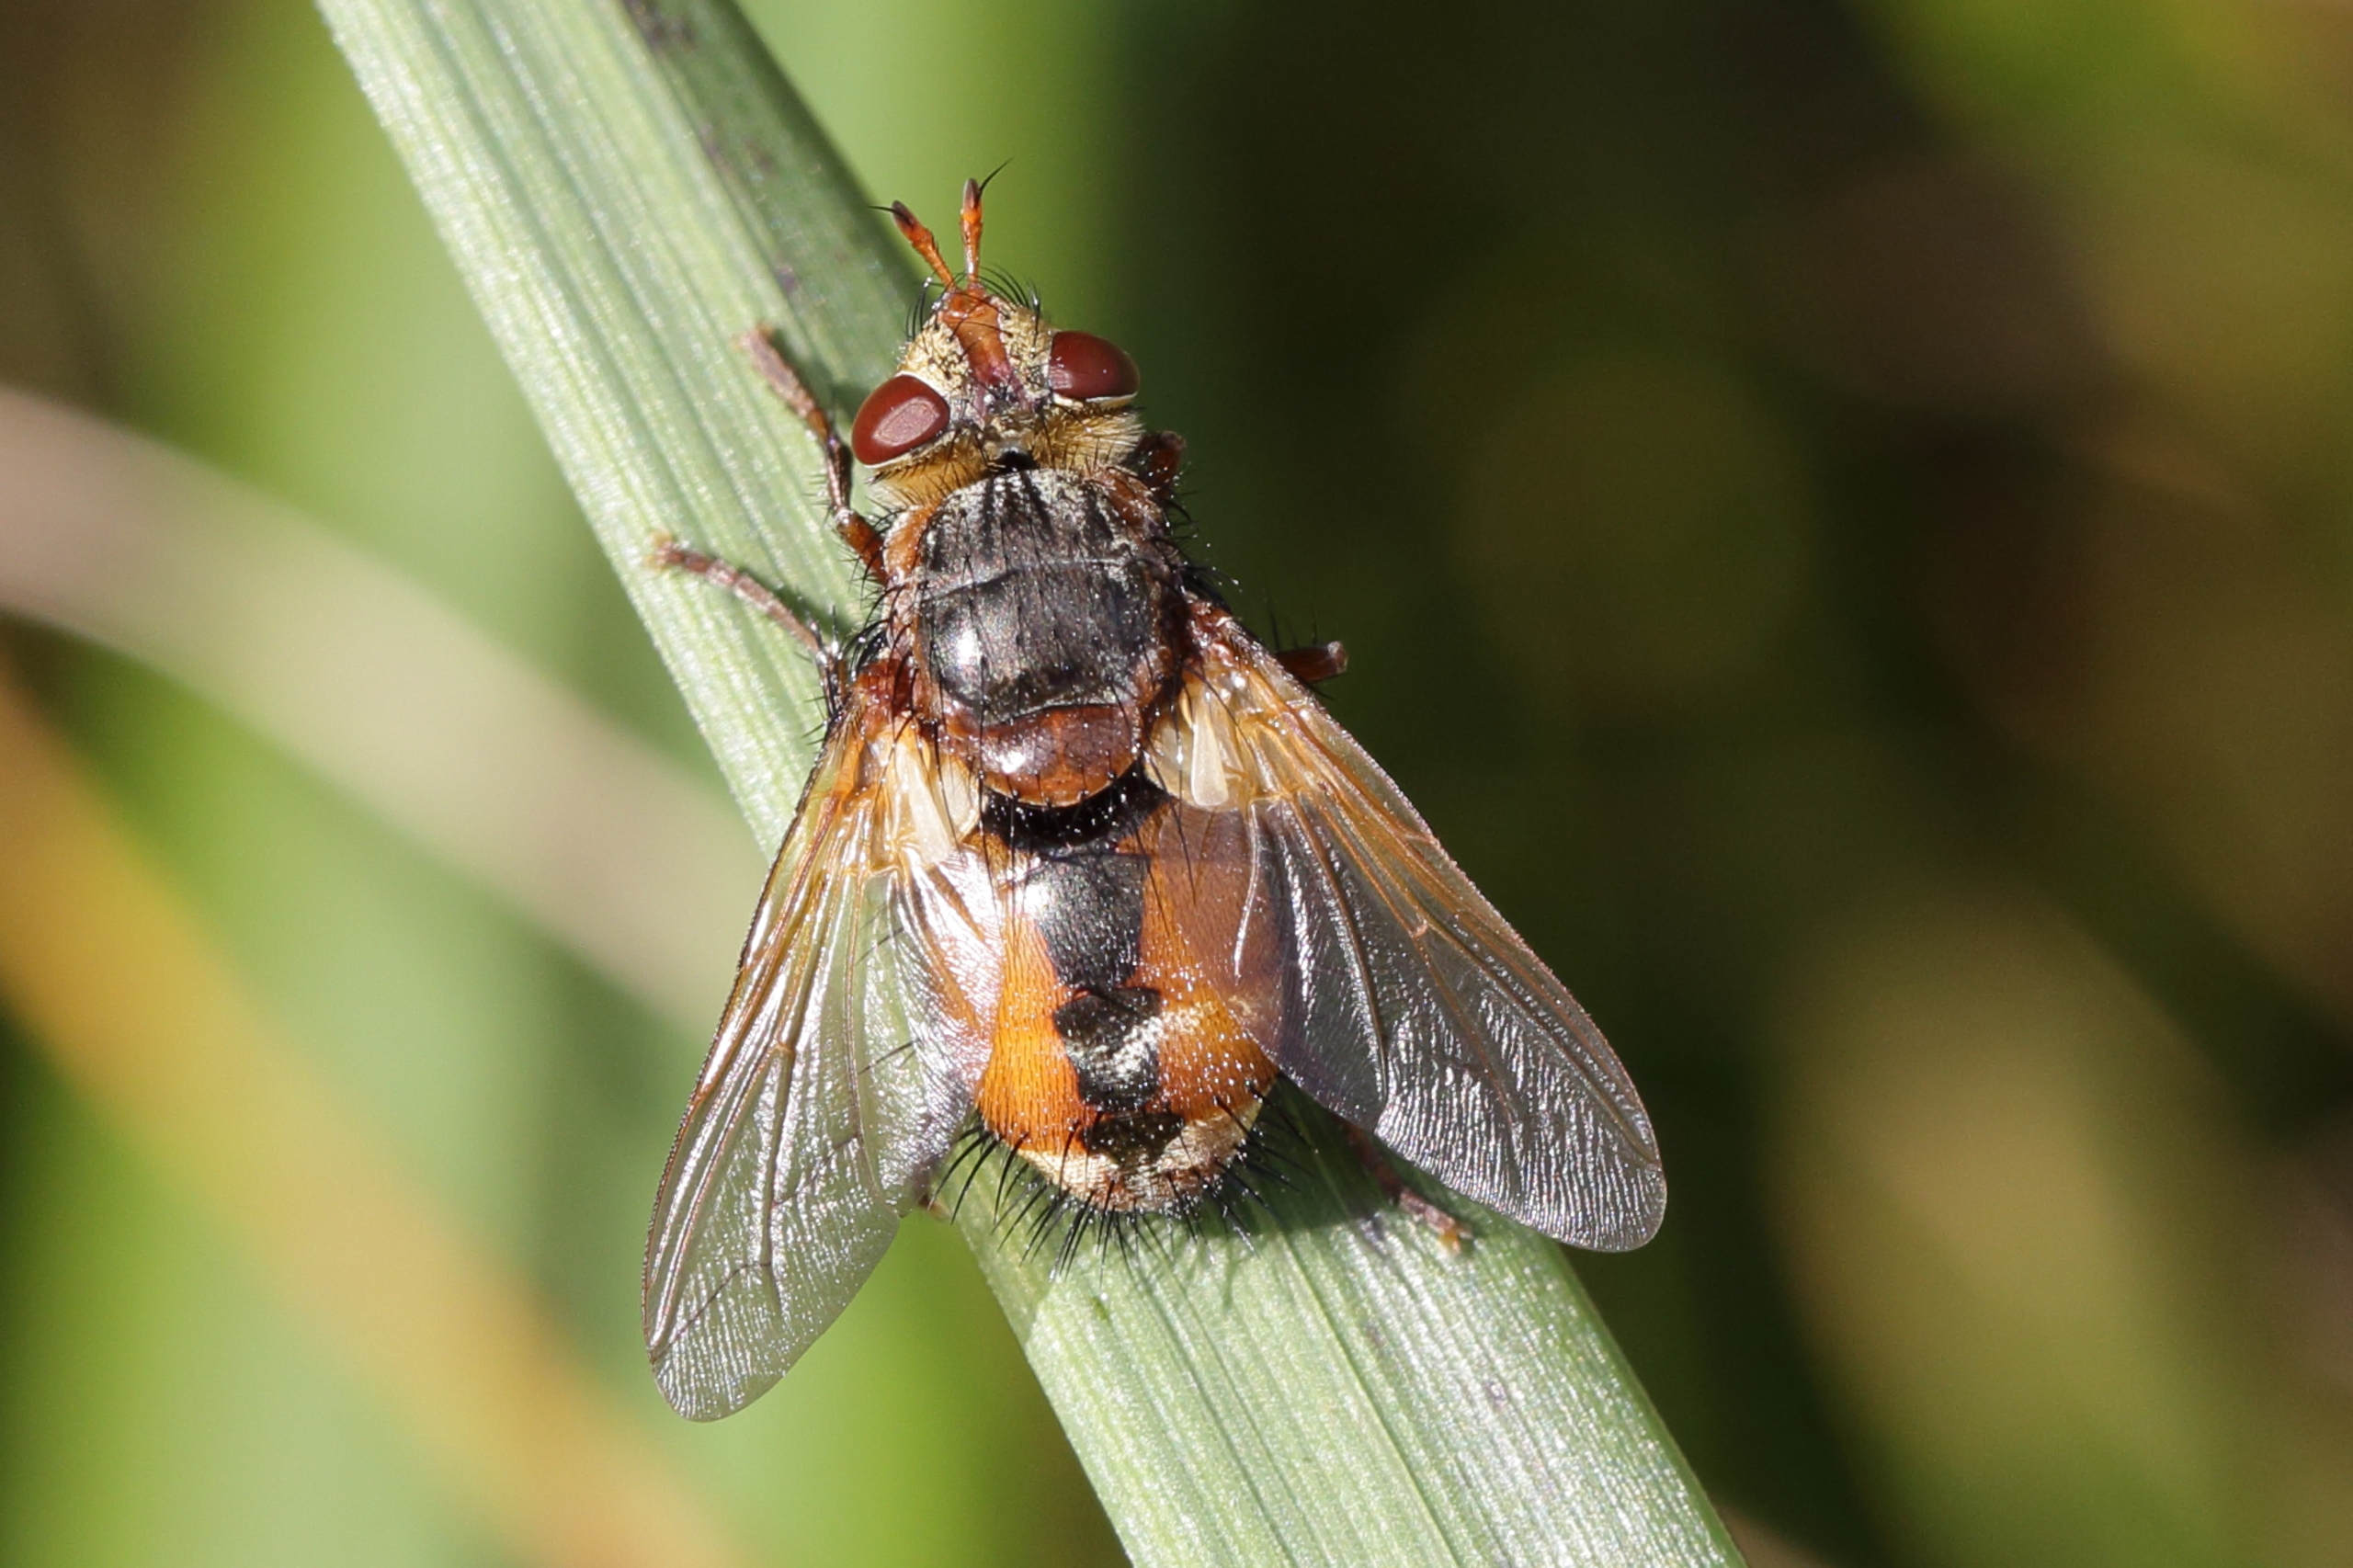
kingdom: Animalia
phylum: Arthropoda
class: Insecta
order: Diptera
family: Tachinidae
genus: Tachina
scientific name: Tachina fera
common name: Mellemfluen oskar
